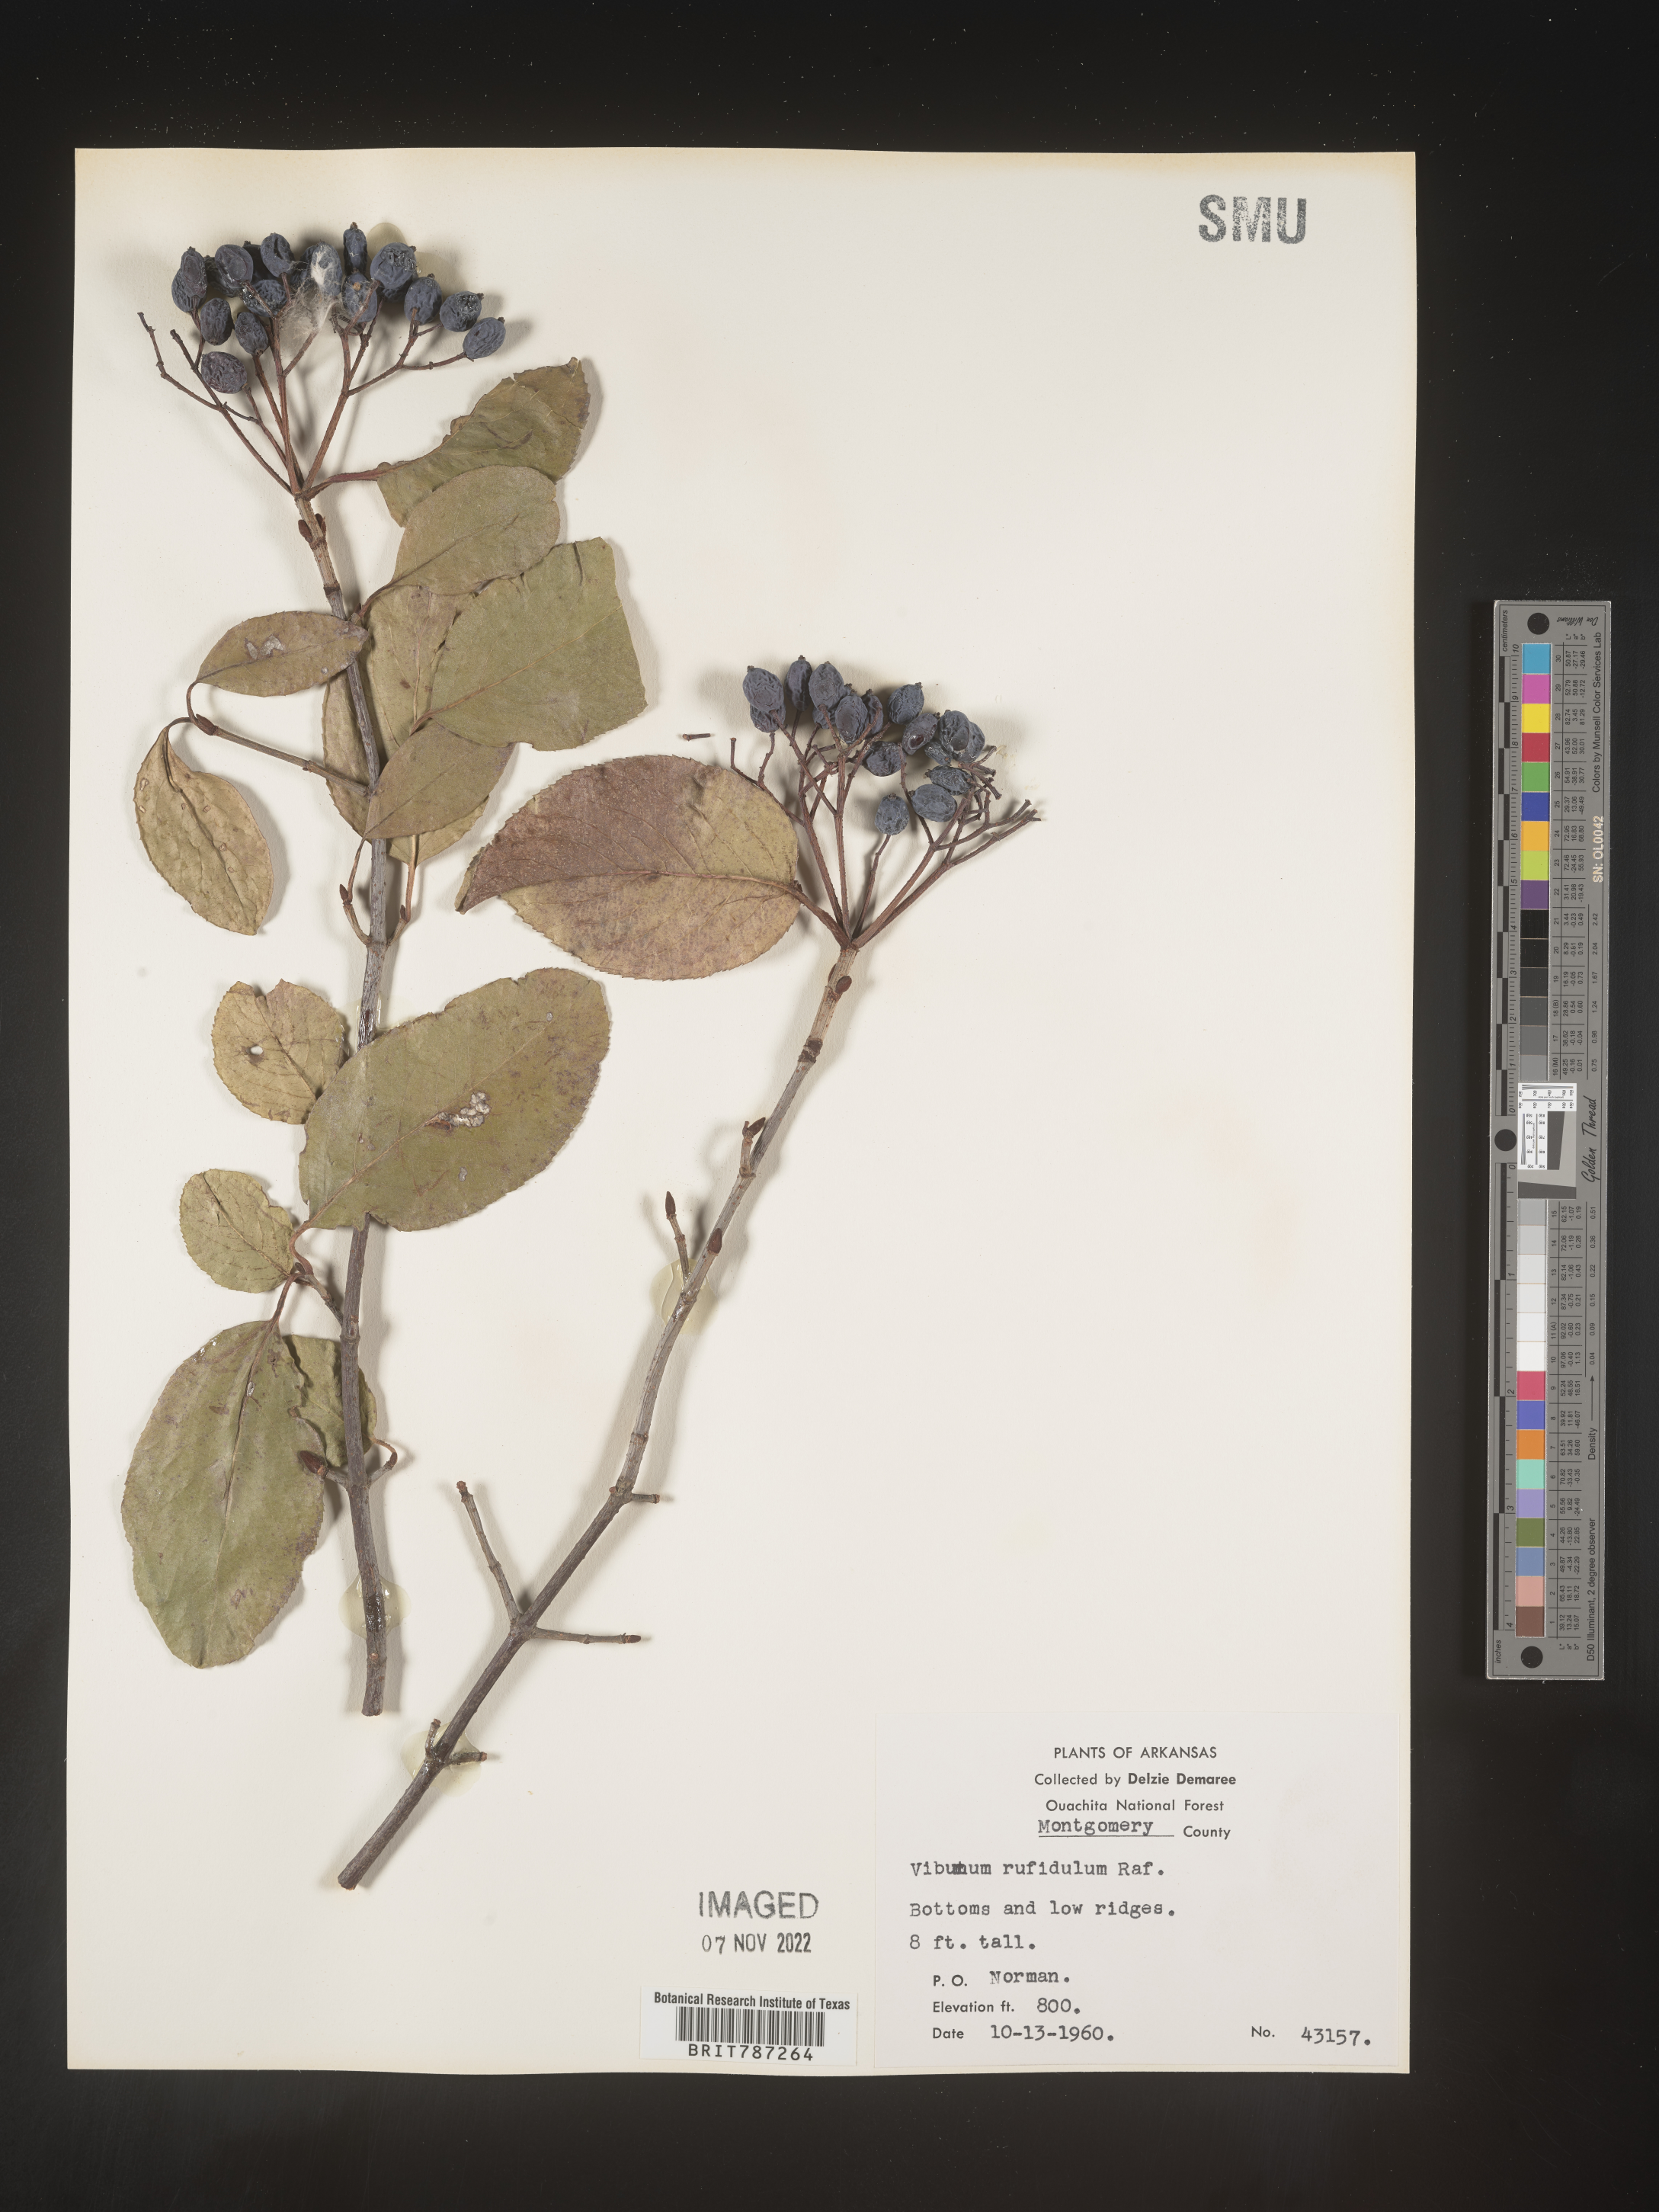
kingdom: Plantae
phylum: Tracheophyta
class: Magnoliopsida
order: Dipsacales
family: Viburnaceae
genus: Viburnum
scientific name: Viburnum rufidulum
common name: Blue haw
